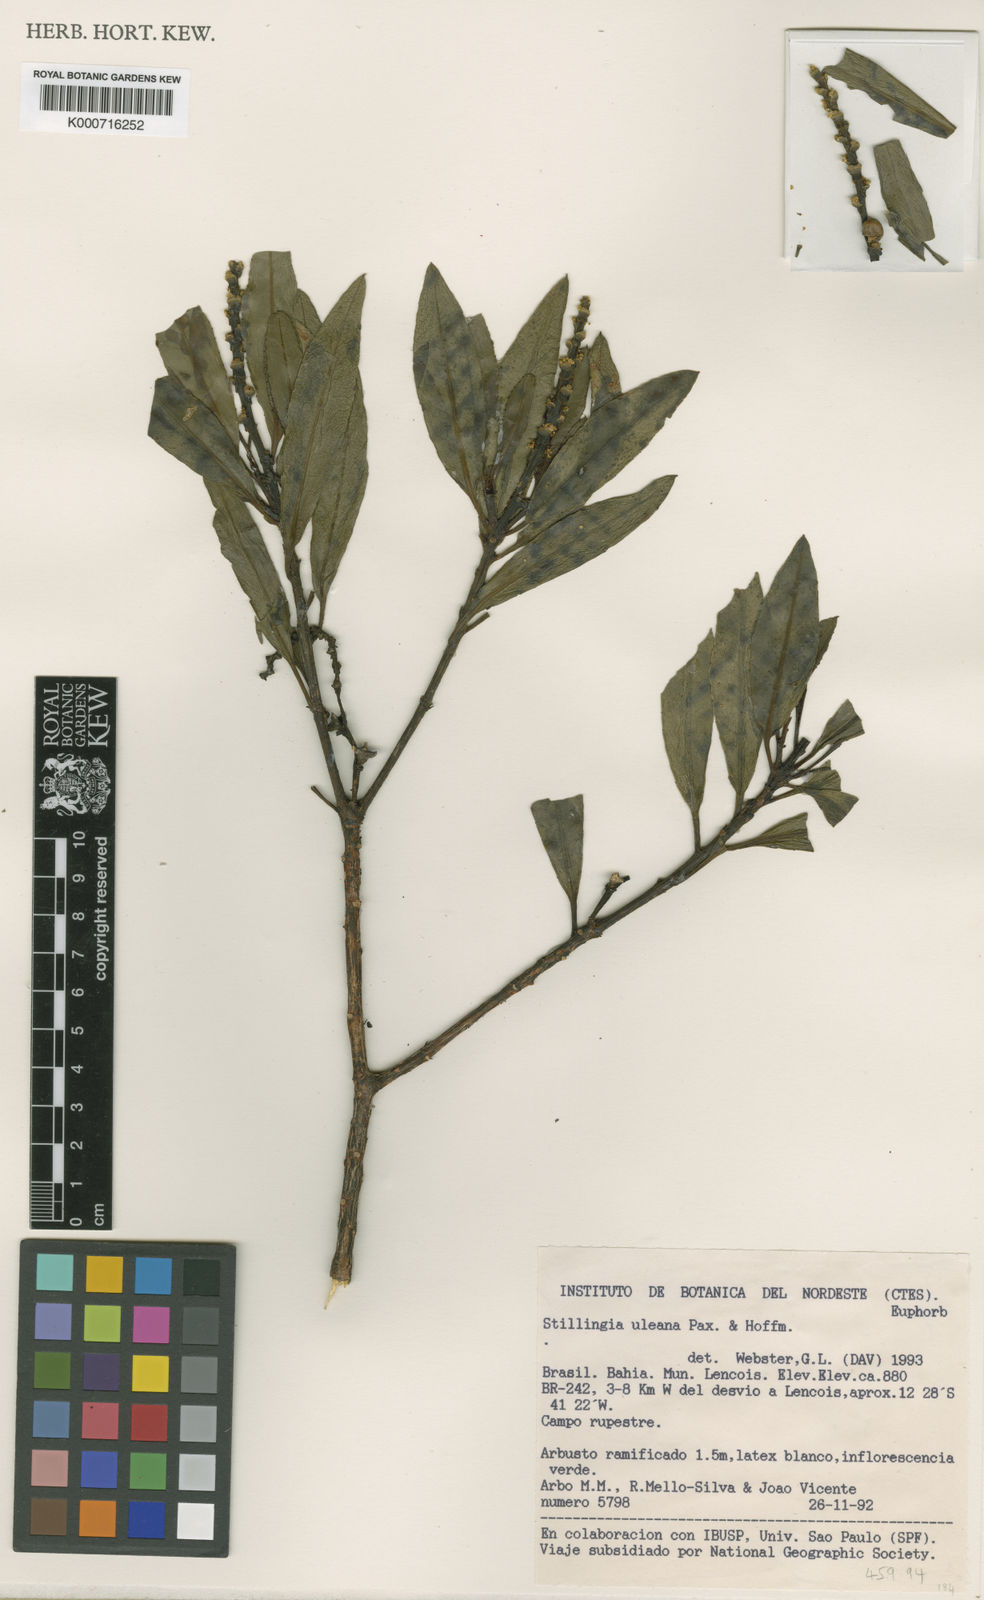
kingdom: Plantae
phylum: Tracheophyta
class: Magnoliopsida
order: Malpighiales
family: Euphorbiaceae
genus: Stillingia
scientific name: Stillingia uleana
